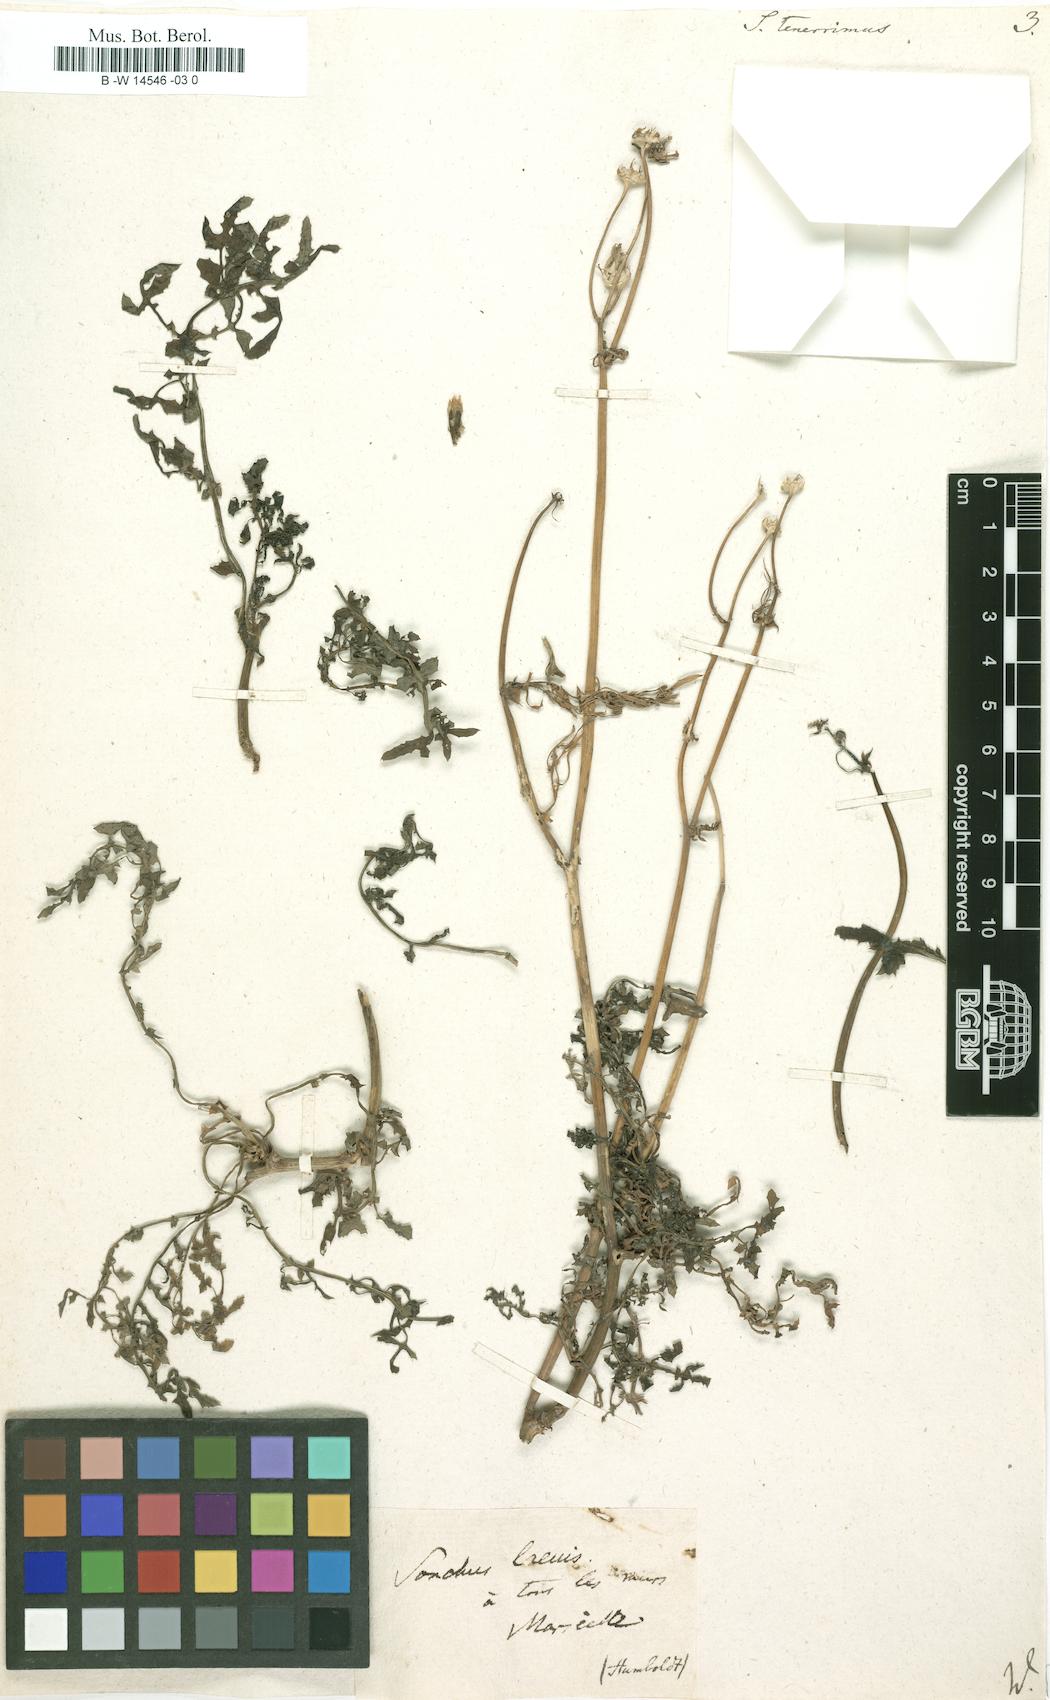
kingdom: Plantae
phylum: Tracheophyta
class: Magnoliopsida
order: Asterales
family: Asteraceae
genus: Sonchus
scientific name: Sonchus tenerrimus
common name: Clammy sowthistle
